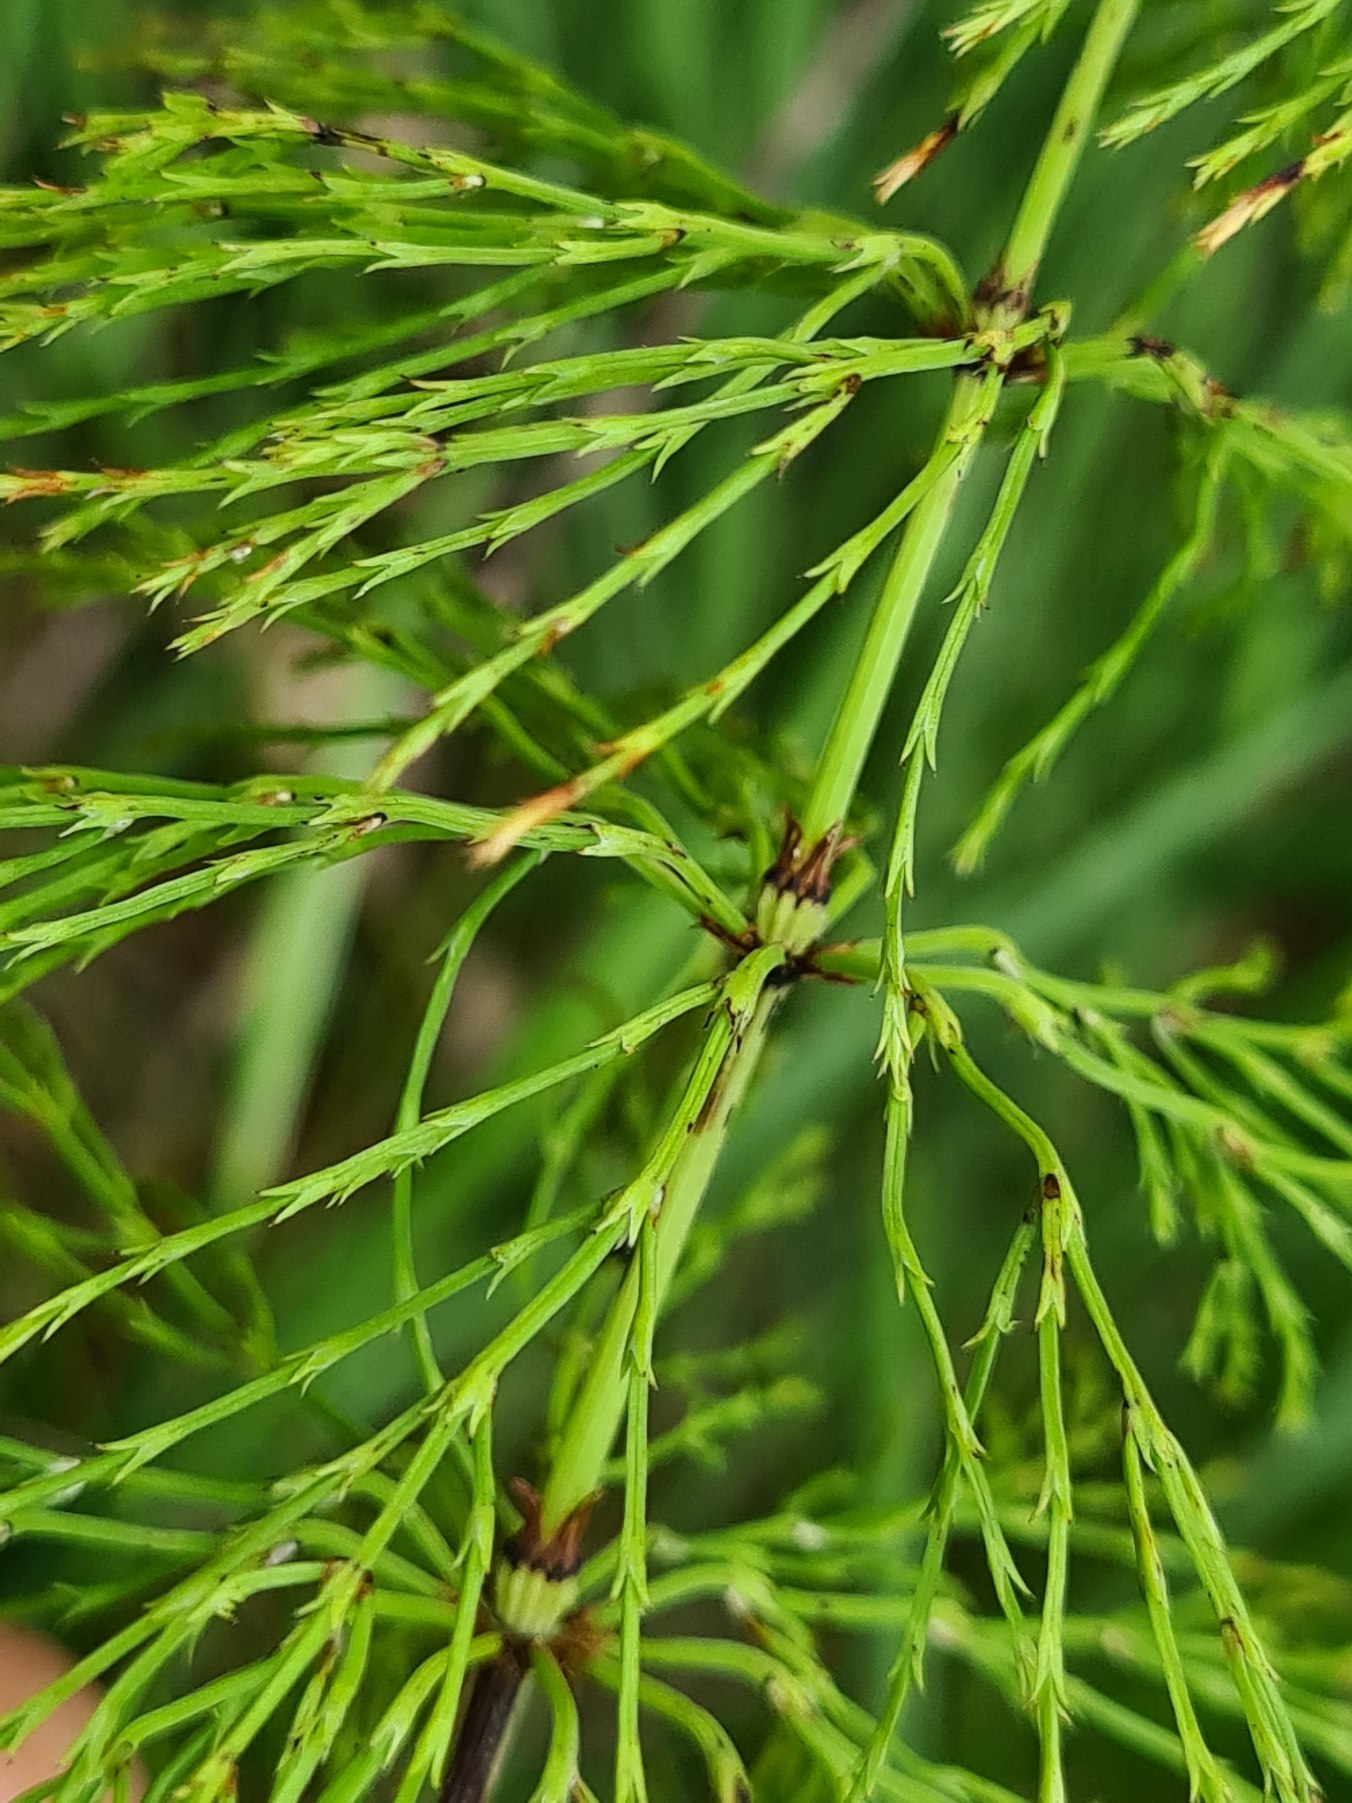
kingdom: Plantae
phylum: Tracheophyta
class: Polypodiopsida
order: Equisetales
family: Equisetaceae
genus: Equisetum
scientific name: Equisetum sylvaticum
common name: Skov-padderok
